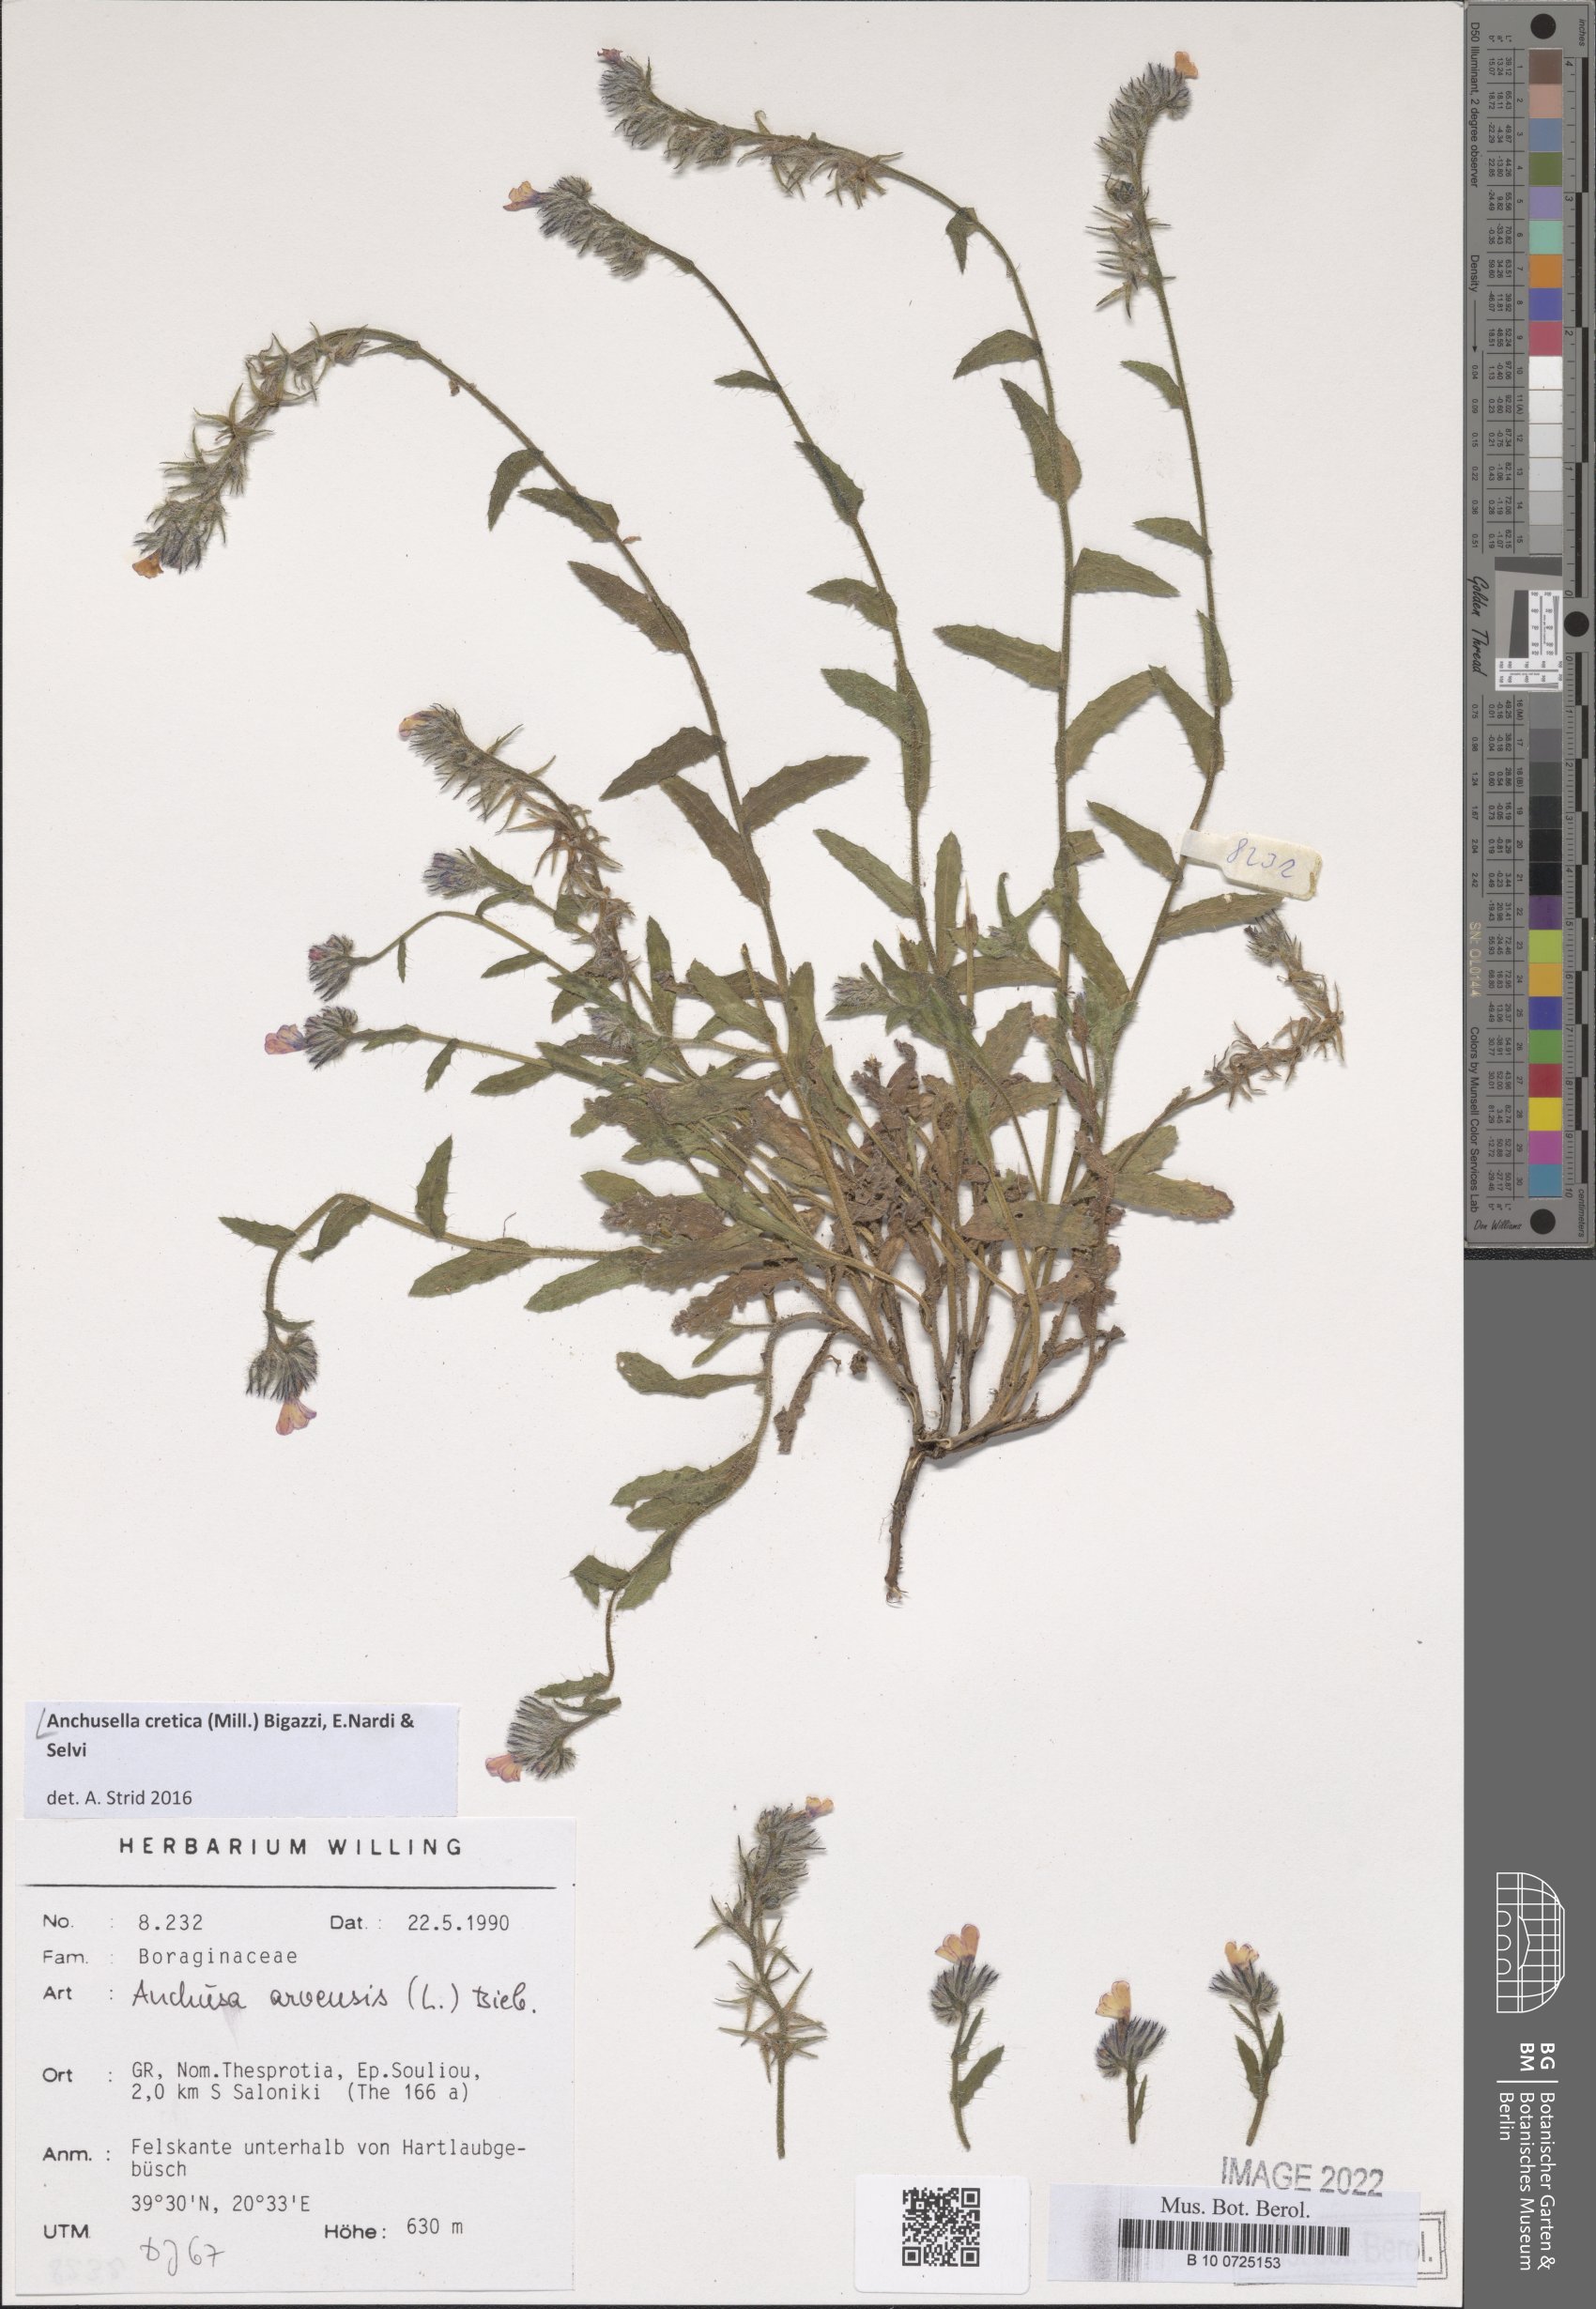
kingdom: Plantae
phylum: Tracheophyta
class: Magnoliopsida
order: Boraginales
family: Boraginaceae
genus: Anchusella
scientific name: Anchusella cretica
